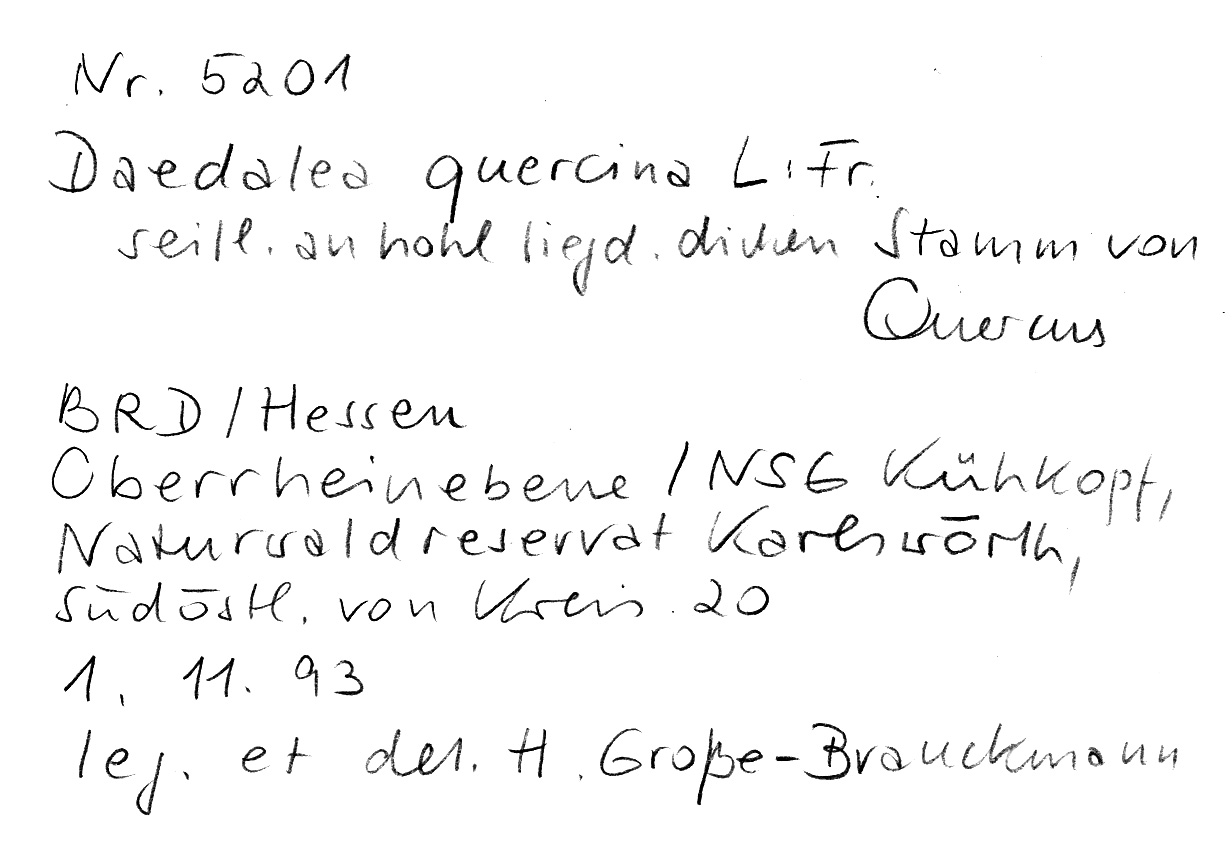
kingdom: Plantae
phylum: Tracheophyta
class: Magnoliopsida
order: Fagales
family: Fagaceae
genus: Quercus
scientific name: Quercus
